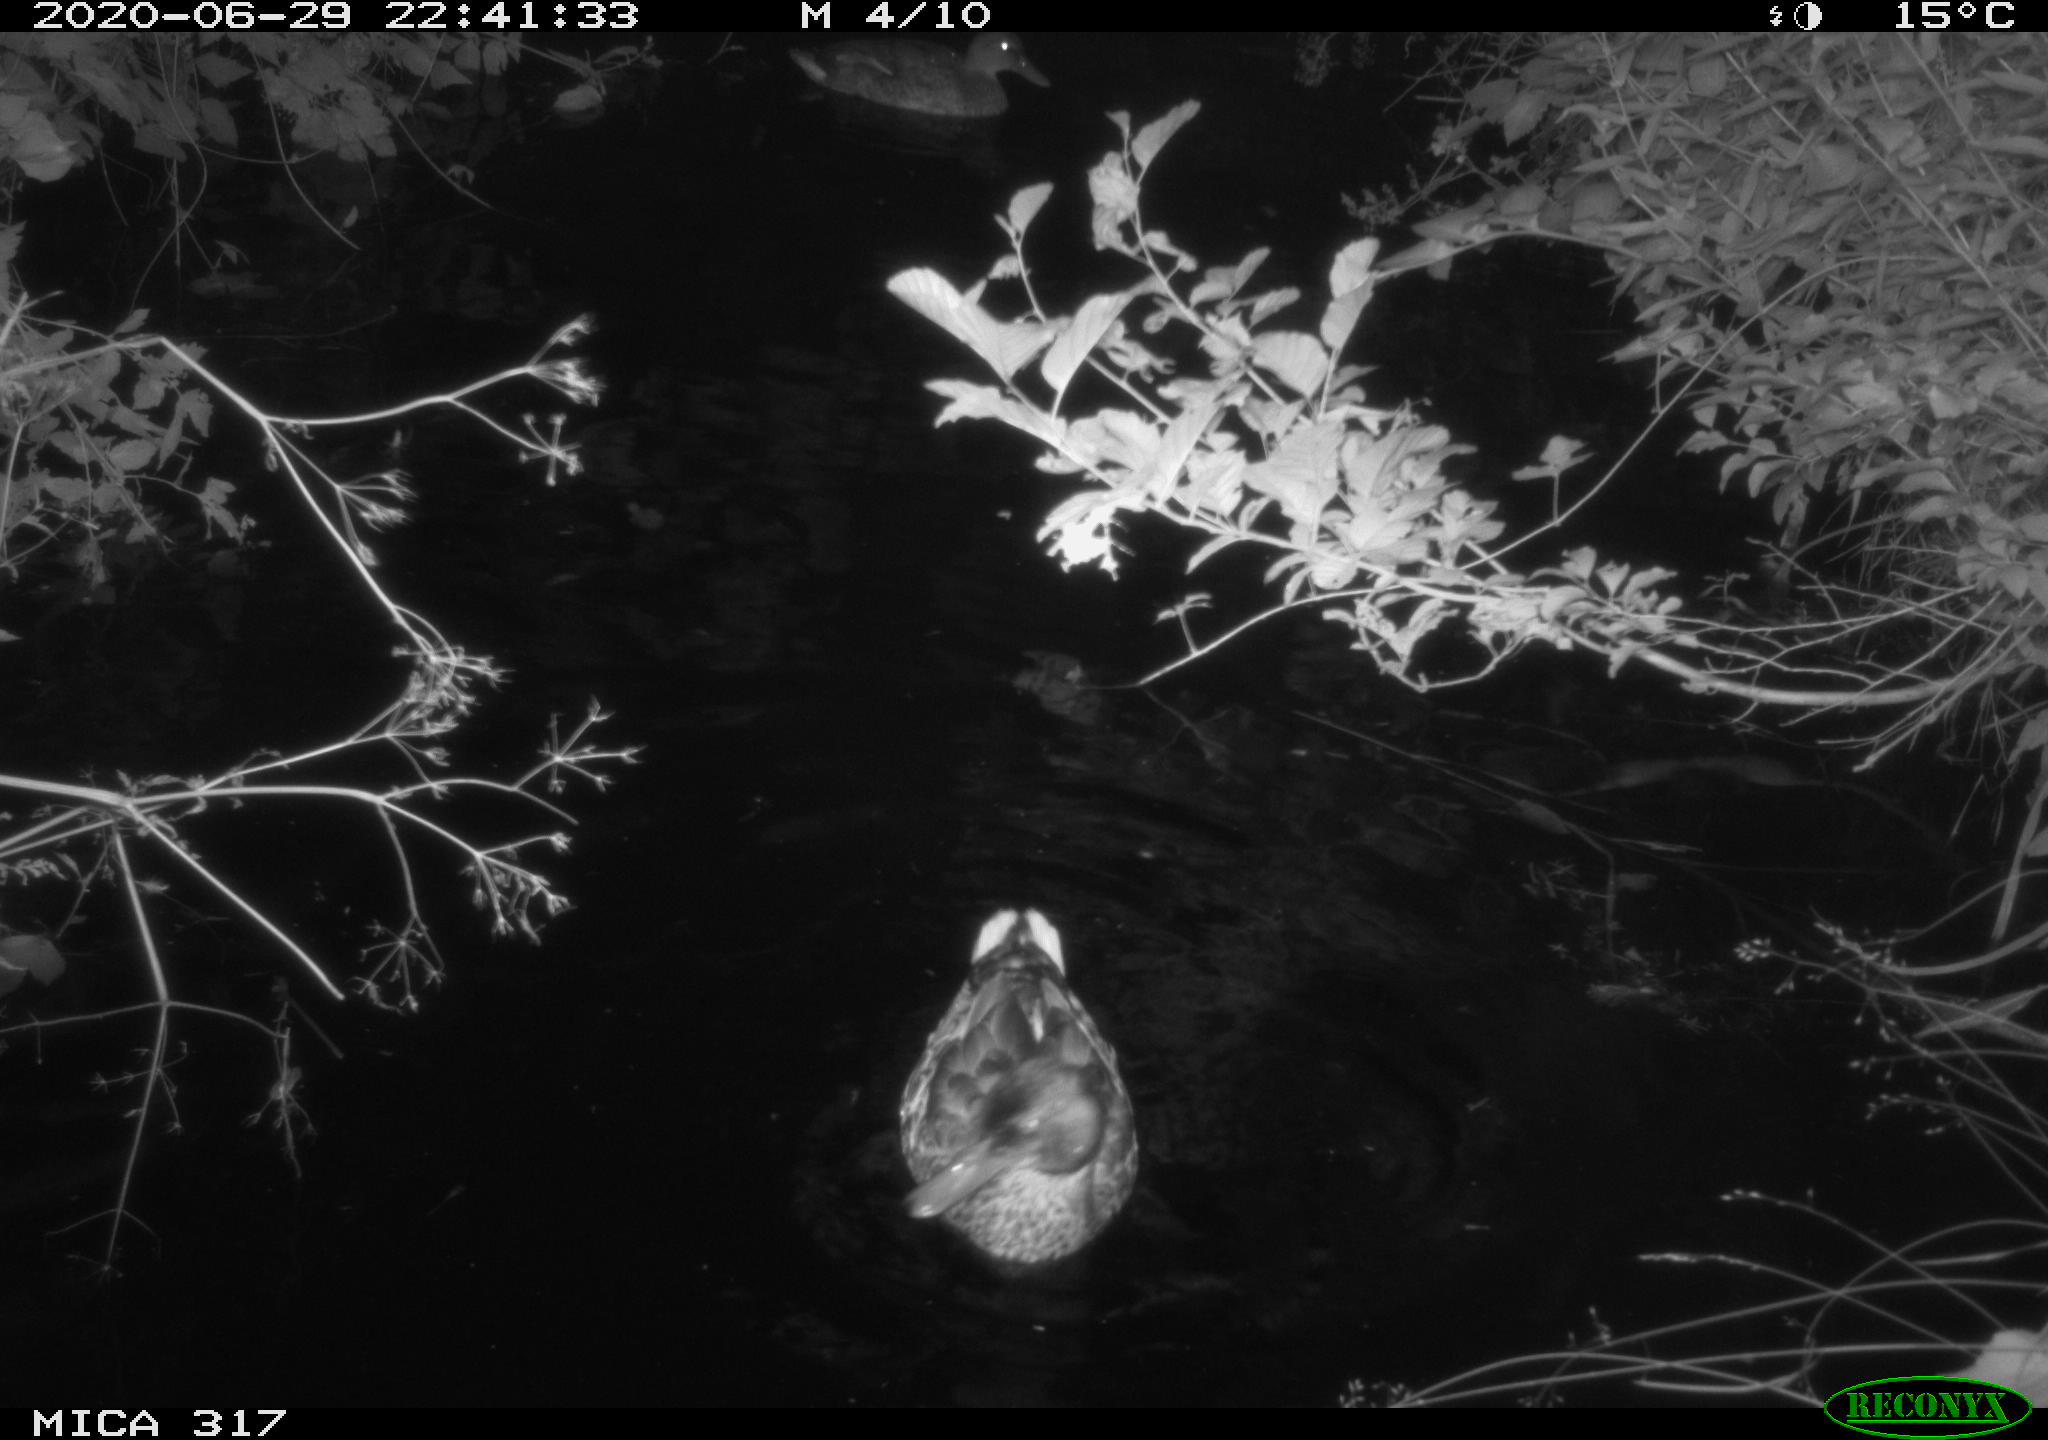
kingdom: Animalia
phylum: Chordata
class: Aves
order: Anseriformes
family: Anatidae
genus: Anas
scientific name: Anas platyrhynchos
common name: Mallard
